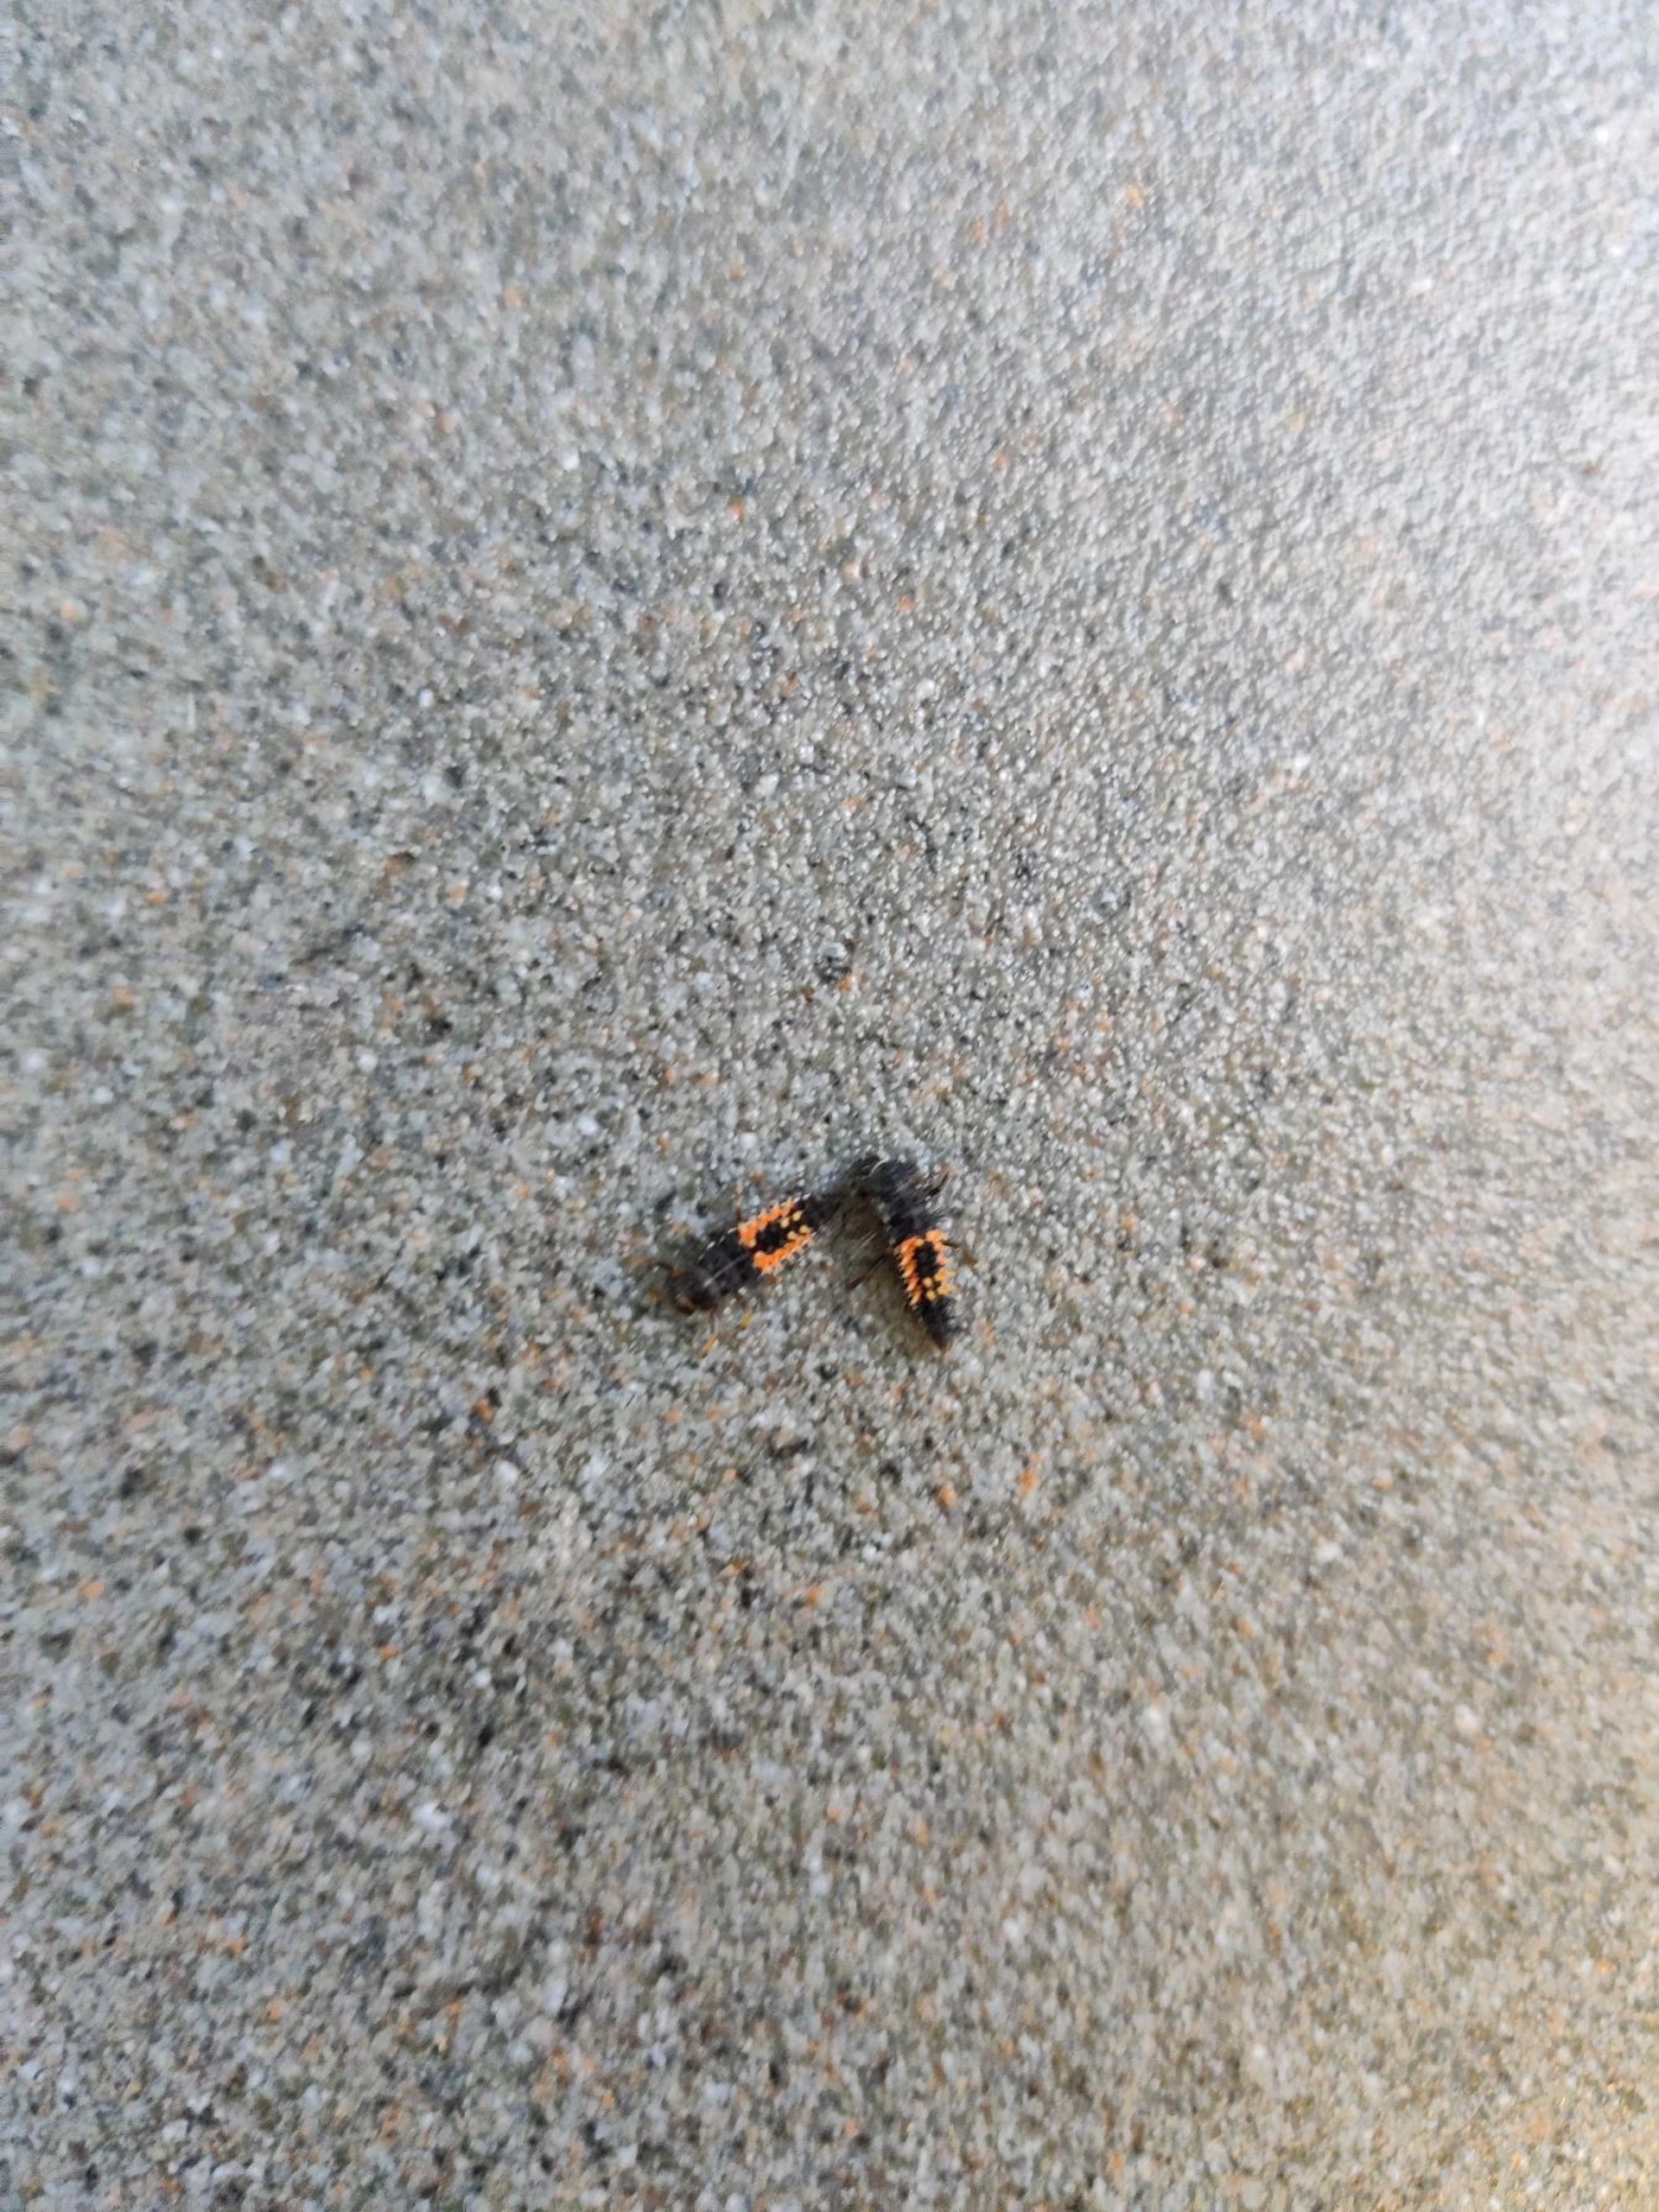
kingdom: Animalia
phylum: Arthropoda
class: Insecta
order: Coleoptera
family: Coccinellidae
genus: Harmonia
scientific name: Harmonia axyridis
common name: Harlekinmariehøne
